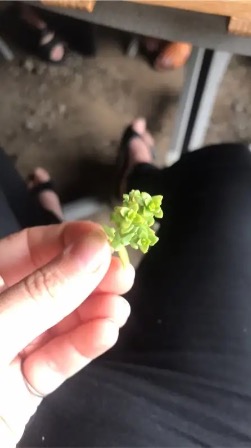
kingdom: Plantae
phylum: Tracheophyta
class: Magnoliopsida
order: Caryophyllales
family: Caryophyllaceae
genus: Honckenya
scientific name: Honckenya peploides
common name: Strandarve
